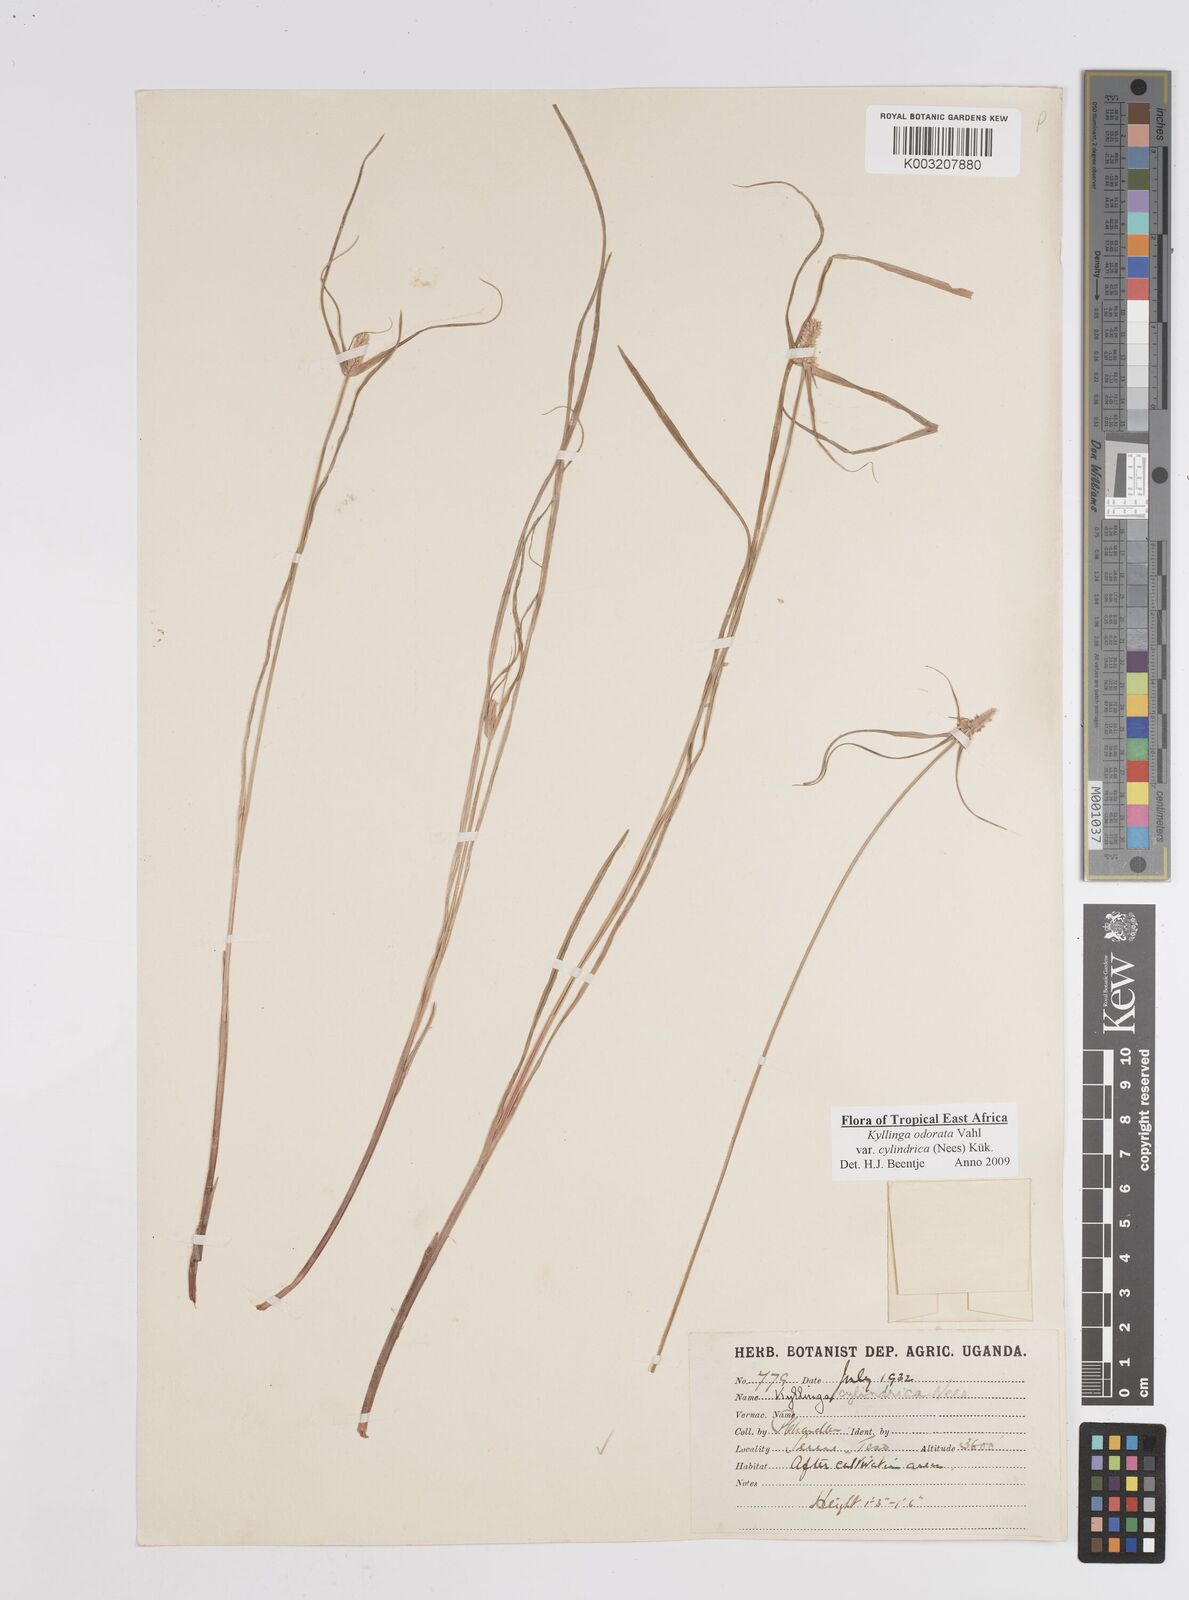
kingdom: Plantae
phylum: Tracheophyta
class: Liliopsida
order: Poales
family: Cyperaceae
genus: Cyperus
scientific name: Cyperus
